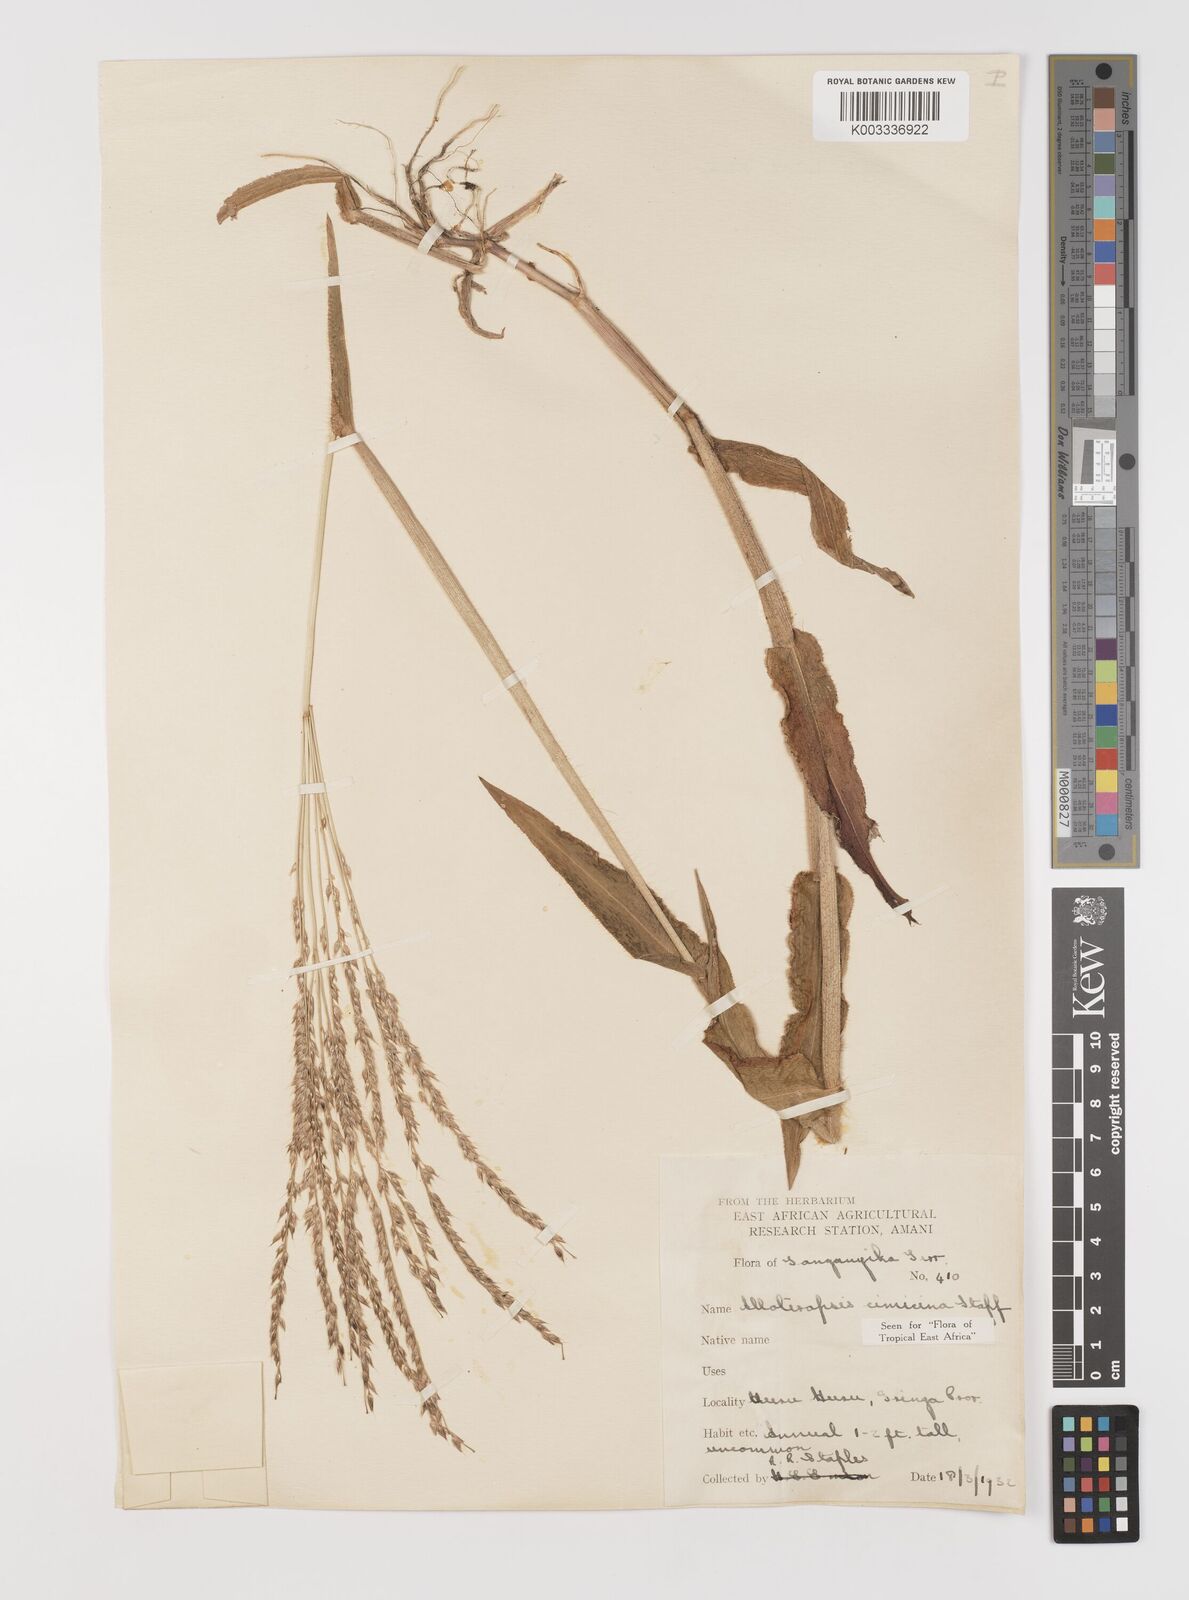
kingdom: Plantae
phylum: Tracheophyta
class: Liliopsida
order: Poales
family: Poaceae
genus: Alloteropsis
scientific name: Alloteropsis cimicina
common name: Summergrass
